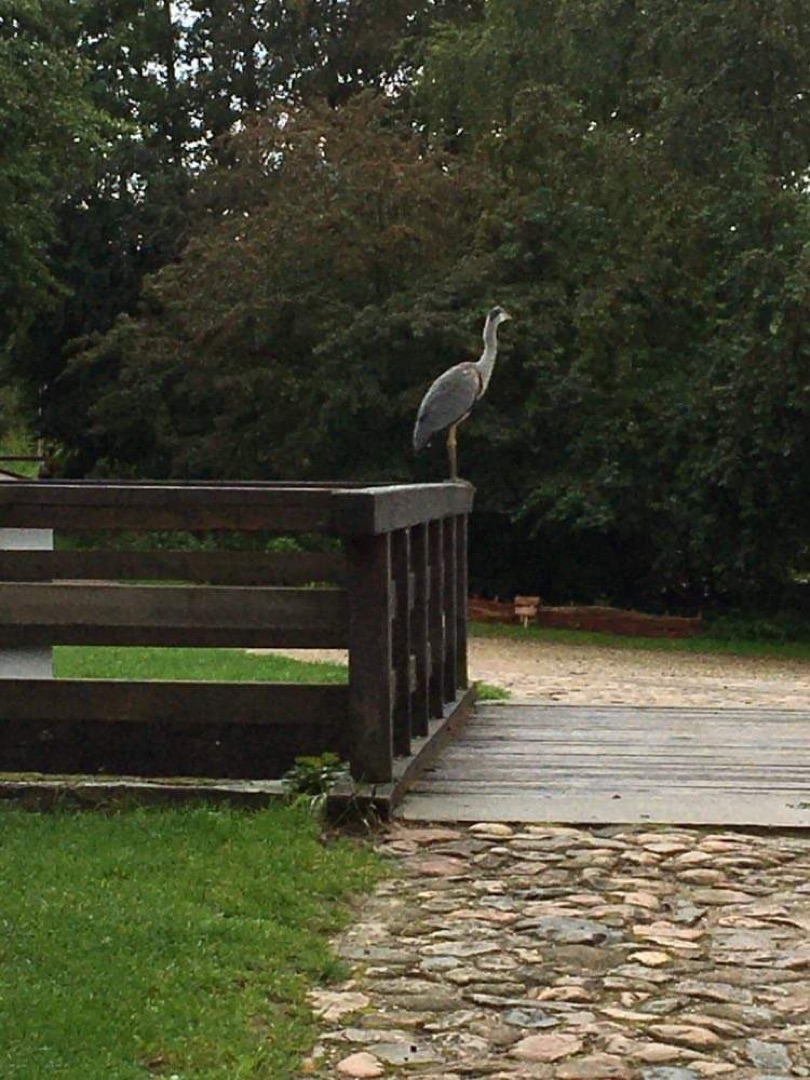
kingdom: Animalia
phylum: Chordata
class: Aves
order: Pelecaniformes
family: Ardeidae
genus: Ardea
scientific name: Ardea cinerea
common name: Fiskehejre
